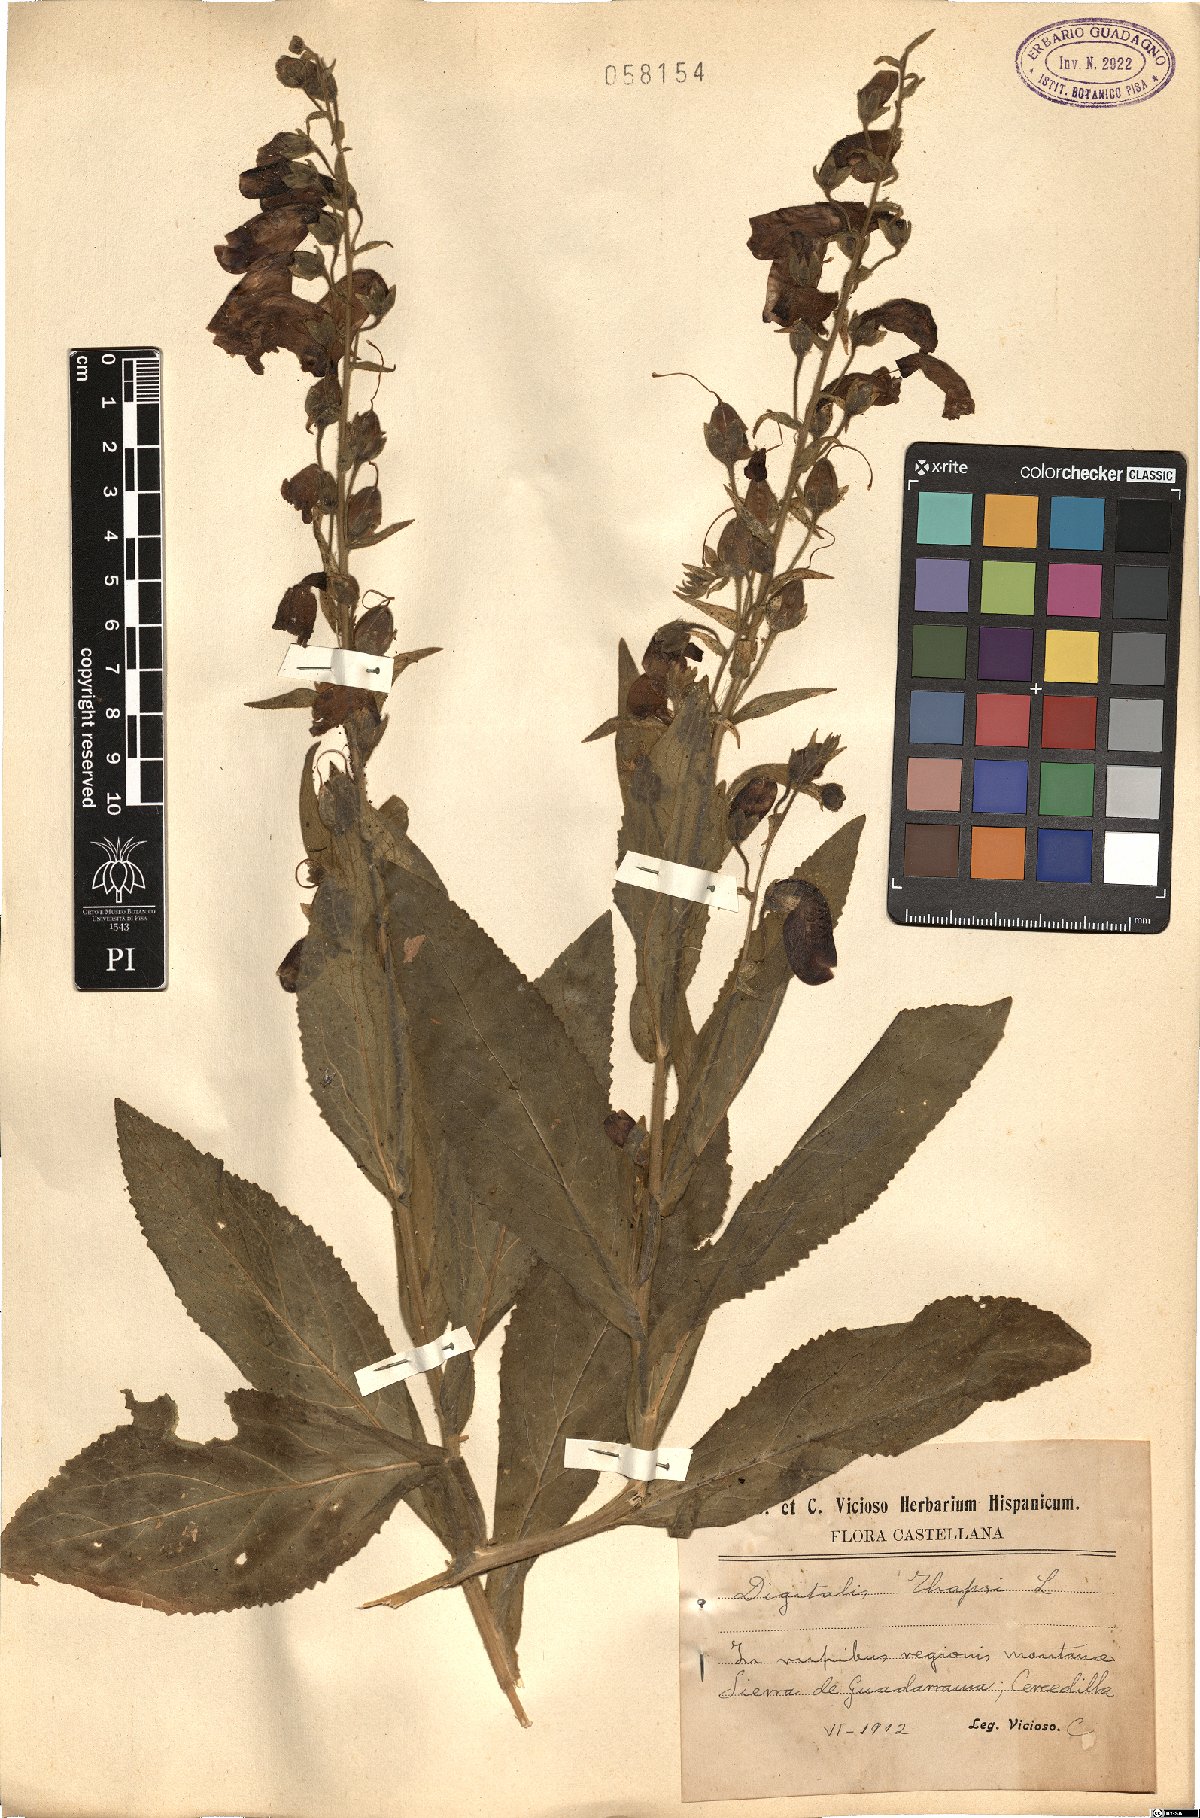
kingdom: Plantae
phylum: Tracheophyta
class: Magnoliopsida
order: Lamiales
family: Plantaginaceae
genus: Digitalis
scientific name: Digitalis thapsi
